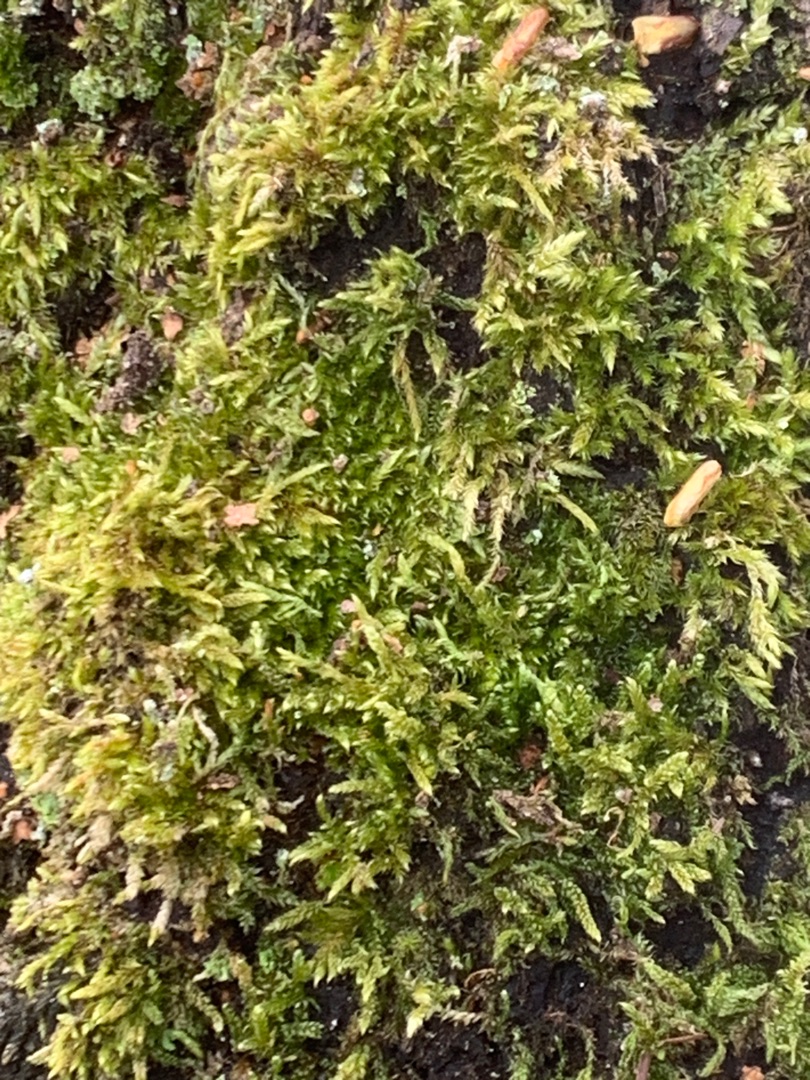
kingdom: Plantae
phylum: Bryophyta
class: Bryopsida
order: Hypnales
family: Hypnaceae
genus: Hypnum
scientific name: Hypnum cupressiforme
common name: Almindelig cypresmos
